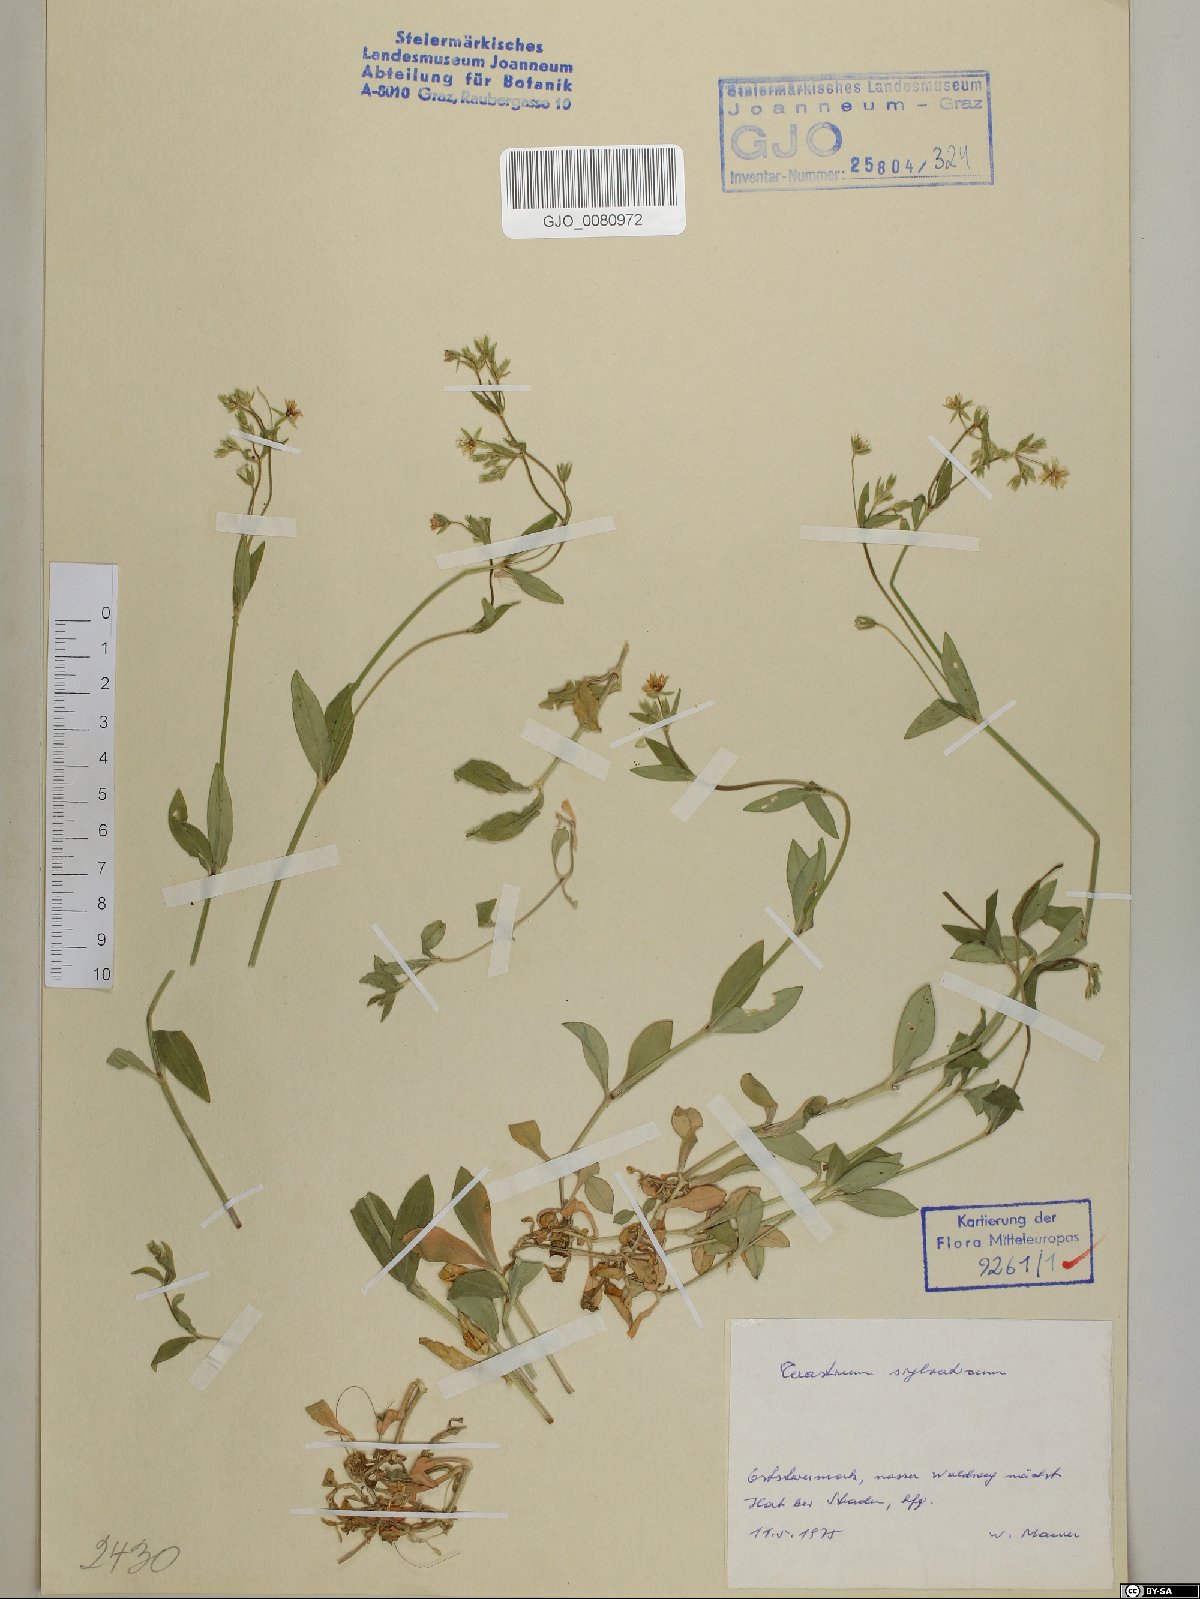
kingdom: Plantae
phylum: Tracheophyta
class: Magnoliopsida
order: Caryophyllales
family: Caryophyllaceae
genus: Cerastium
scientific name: Cerastium sylvaticum
